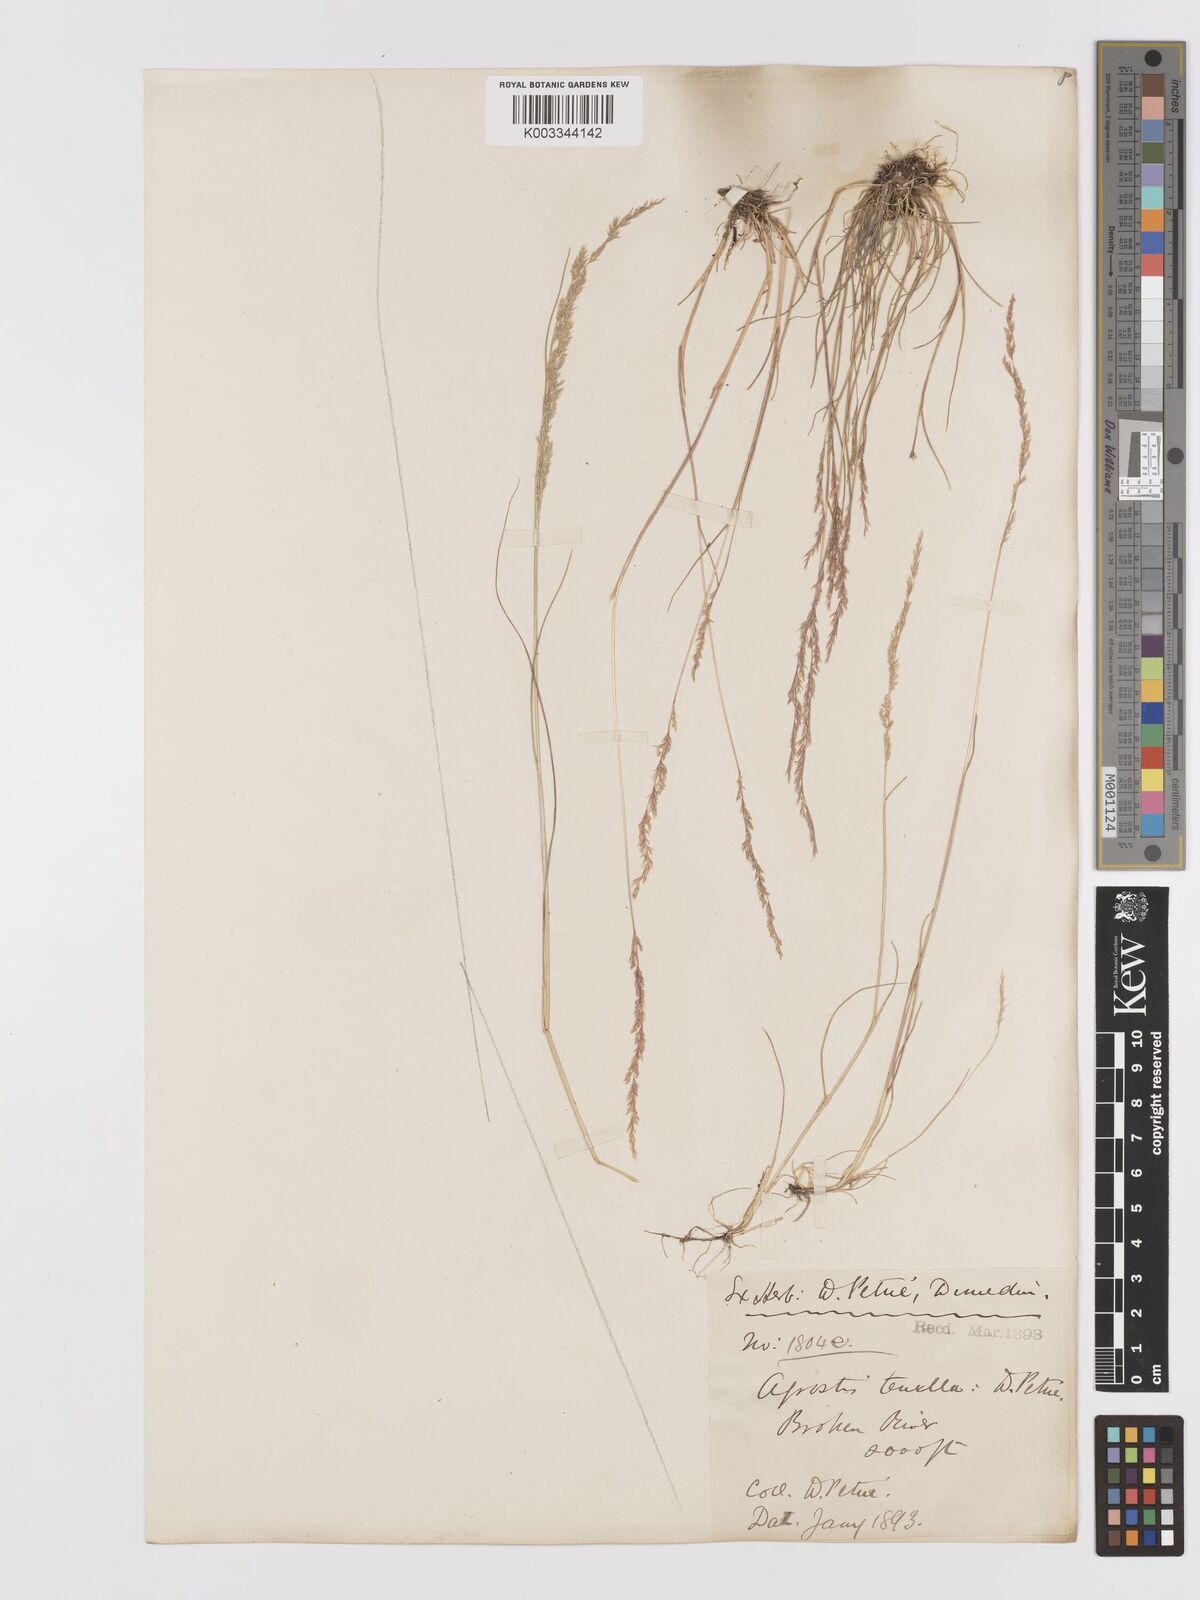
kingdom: Plantae
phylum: Tracheophyta
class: Liliopsida
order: Poales
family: Poaceae
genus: Agrostis
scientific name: Agrostis imbecilla
